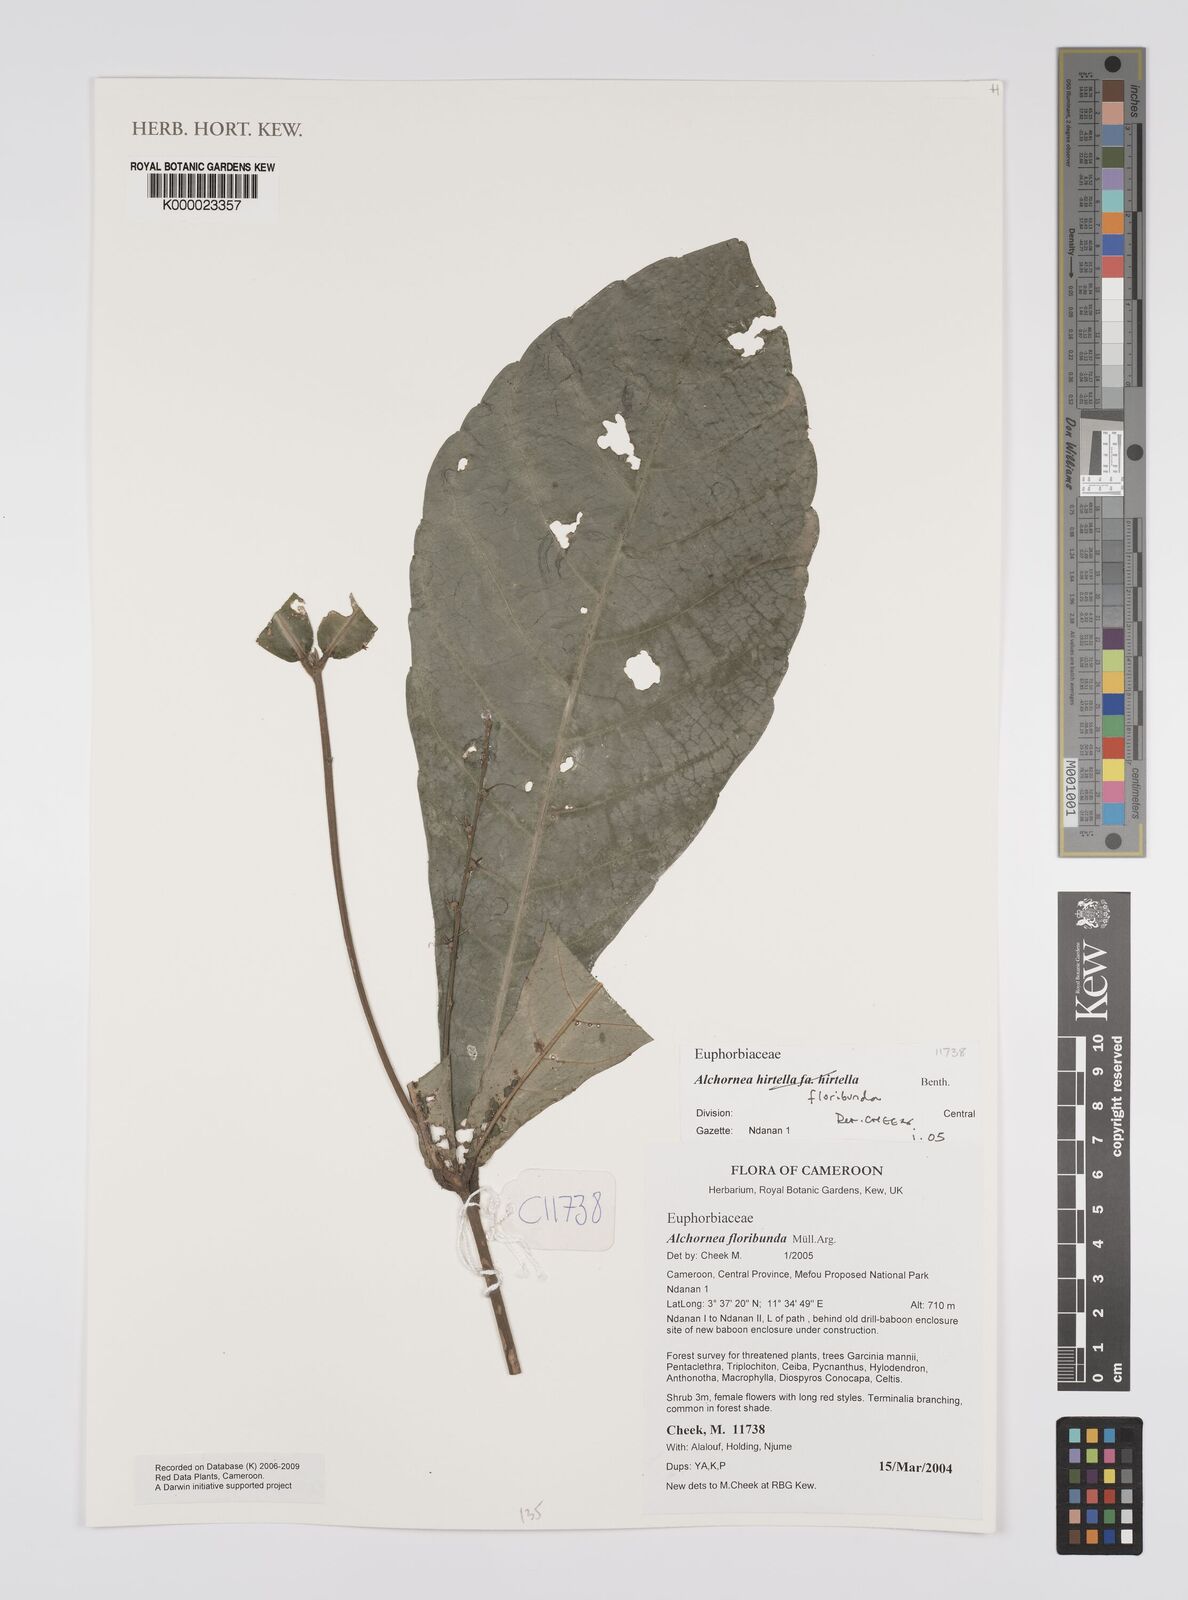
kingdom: Plantae
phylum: Tracheophyta
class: Magnoliopsida
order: Malpighiales
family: Euphorbiaceae
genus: Alchornea
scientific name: Alchornea
